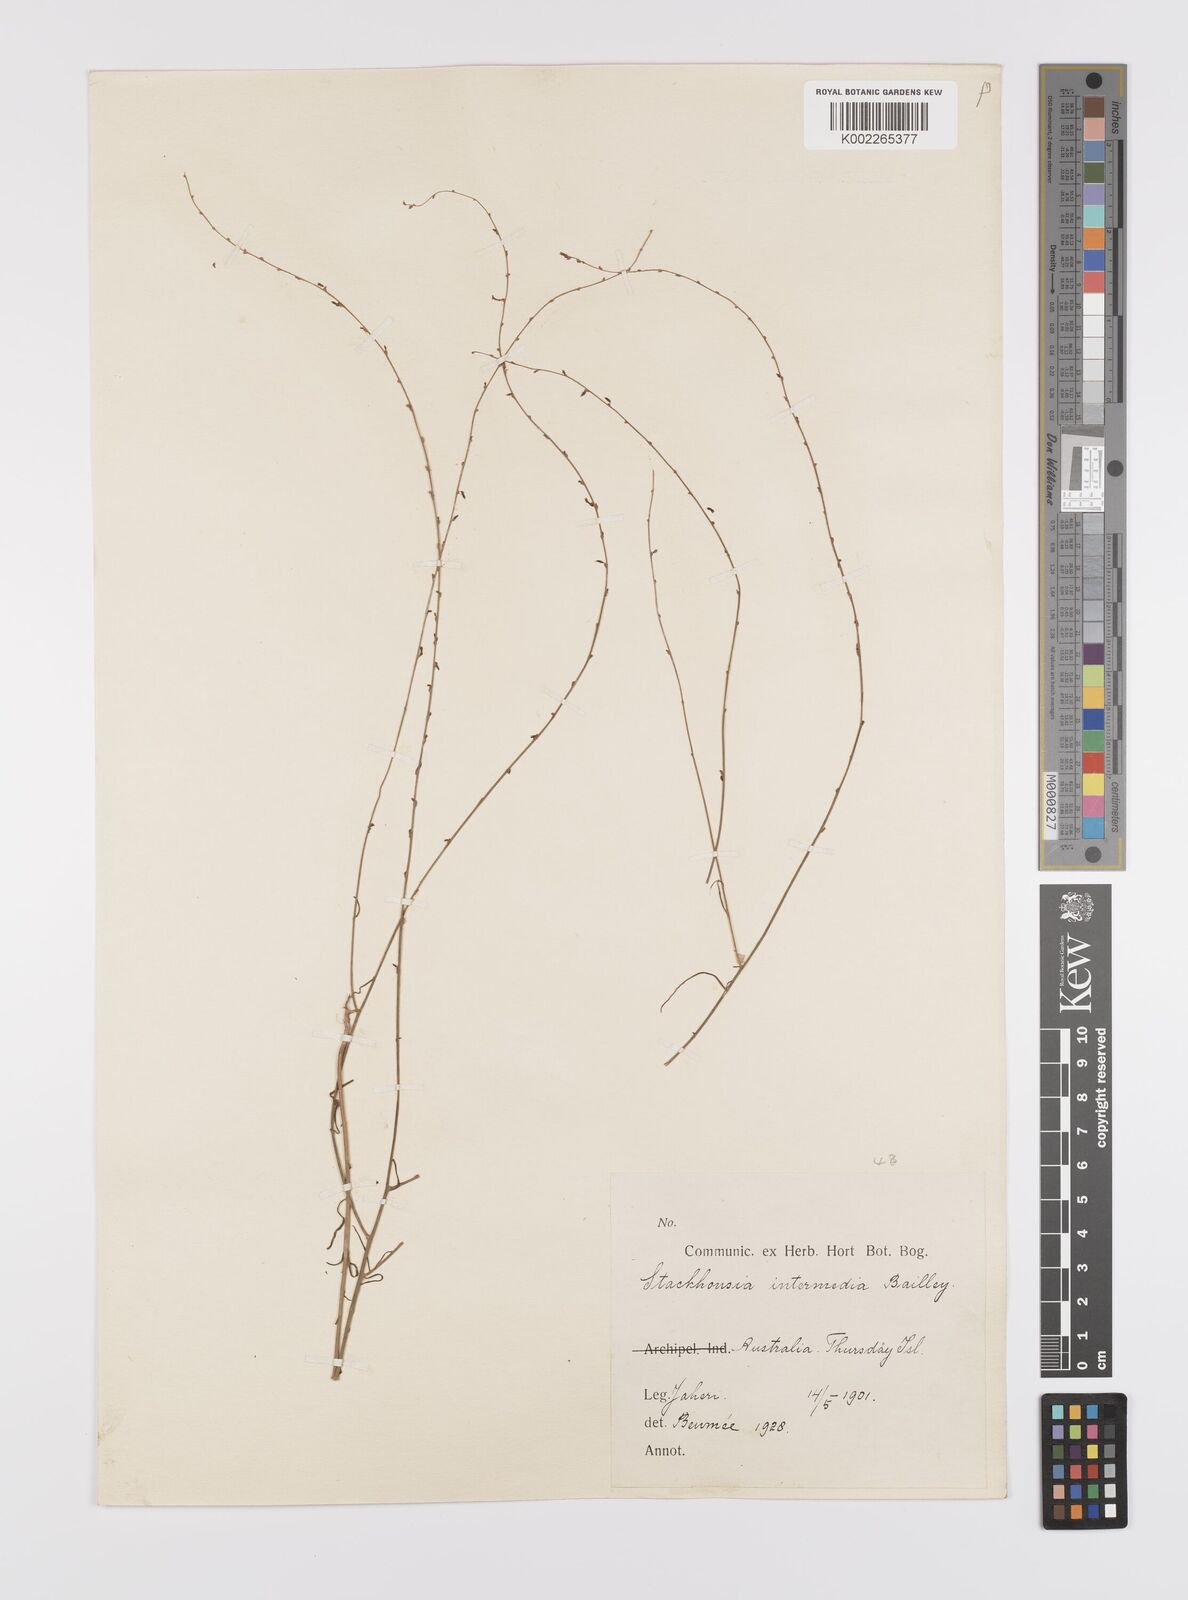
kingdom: Plantae
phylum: Tracheophyta
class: Magnoliopsida
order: Celastrales
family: Celastraceae
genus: Stackhousia
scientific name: Stackhousia intermedia
